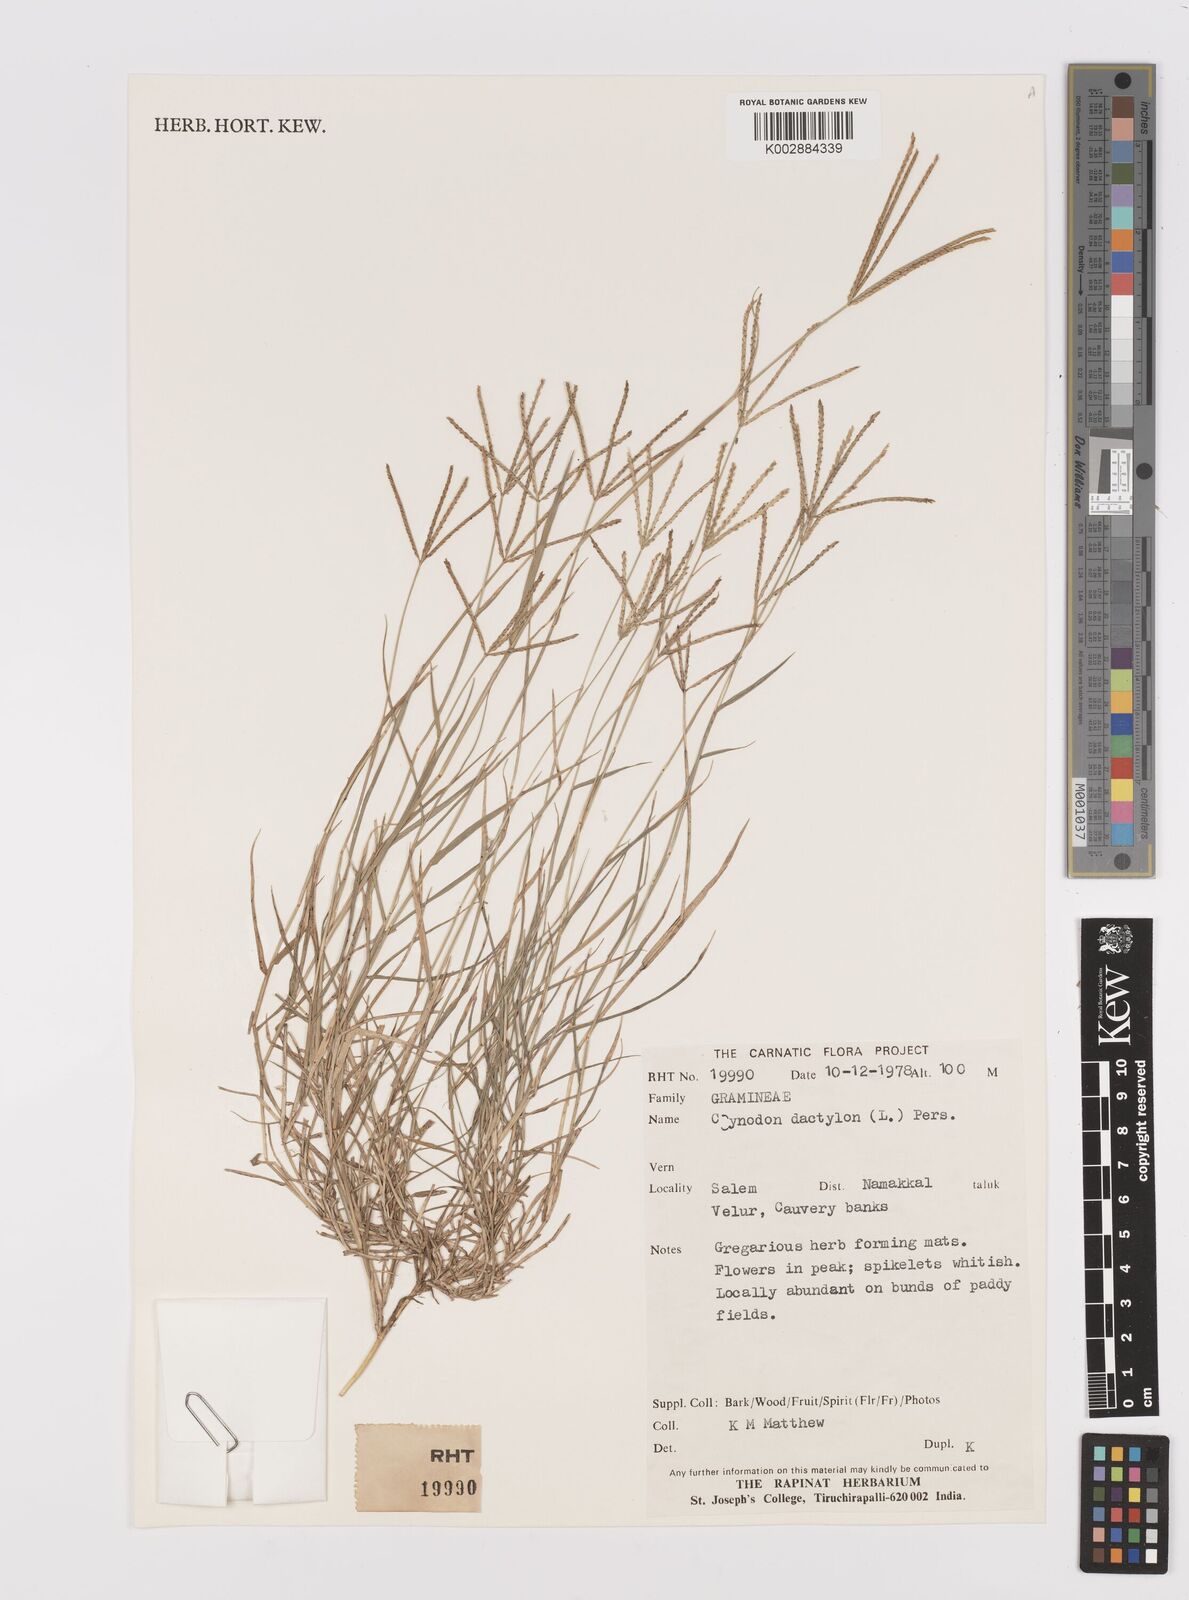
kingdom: Plantae
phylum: Tracheophyta
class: Liliopsida
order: Poales
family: Poaceae
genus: Cynodon
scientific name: Cynodon dactylon
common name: Bermuda grass
